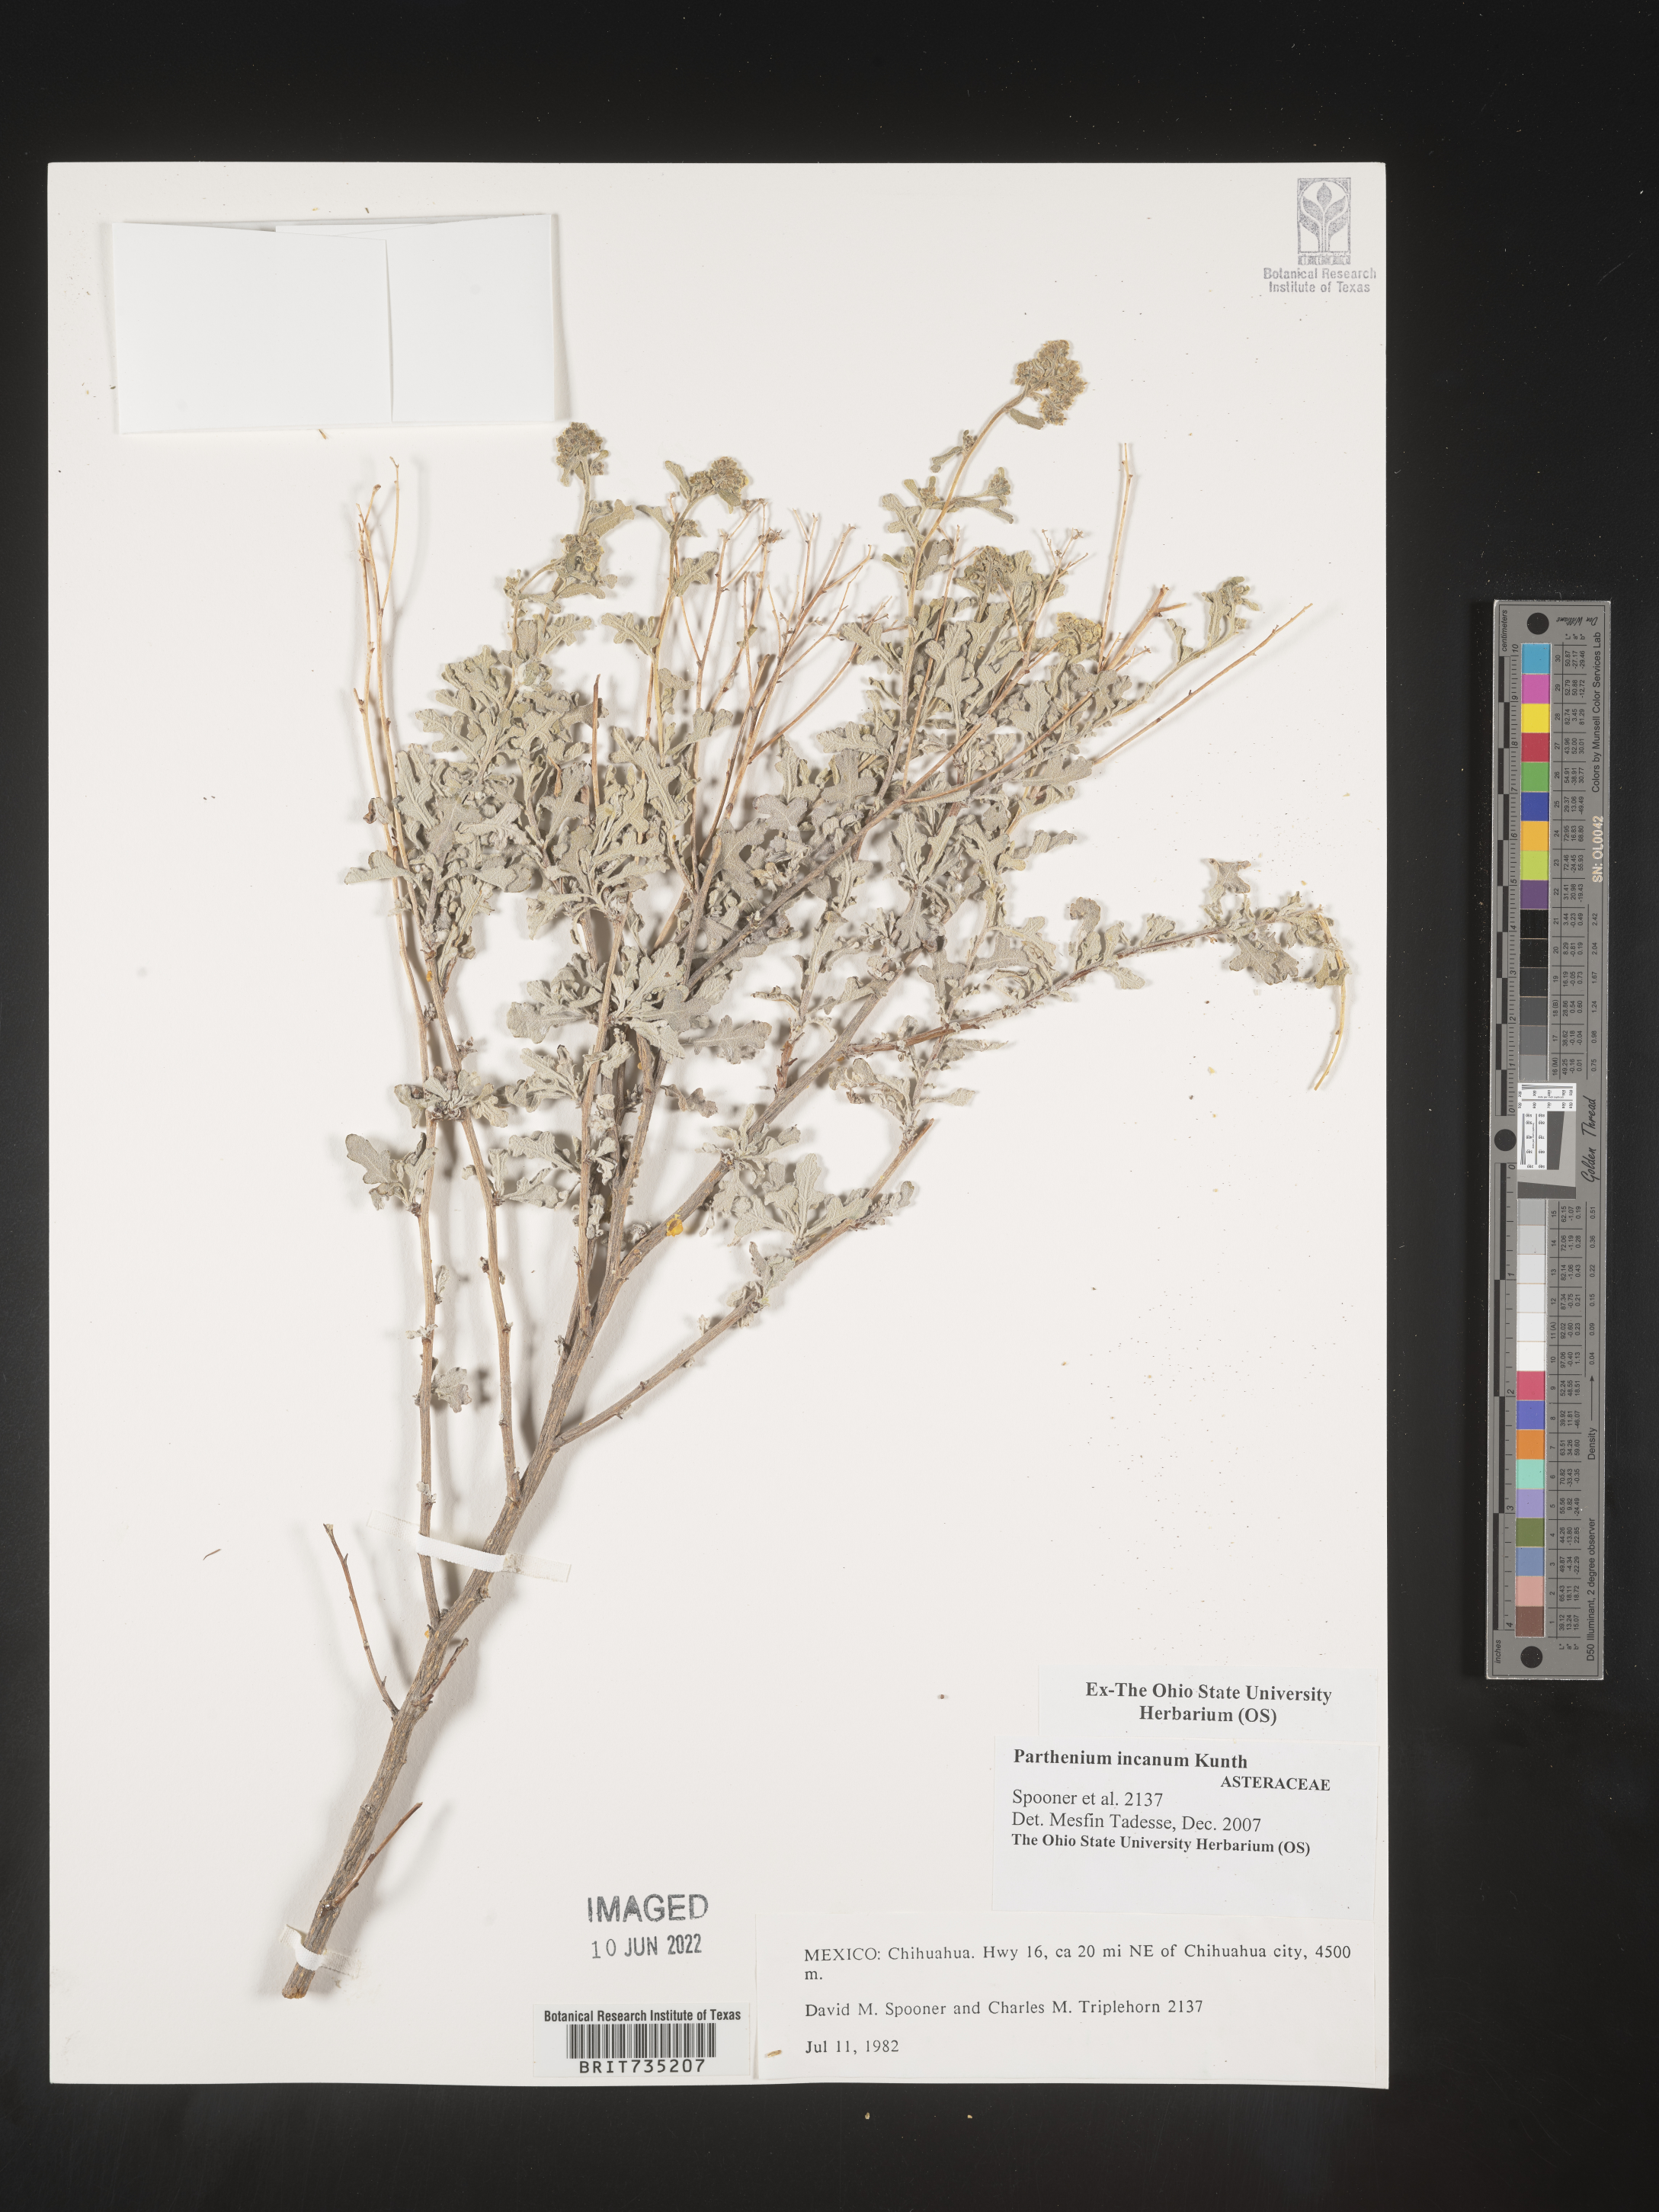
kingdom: Plantae
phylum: Tracheophyta
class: Magnoliopsida
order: Asterales
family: Asteraceae
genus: Parthenium
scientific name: Parthenium
